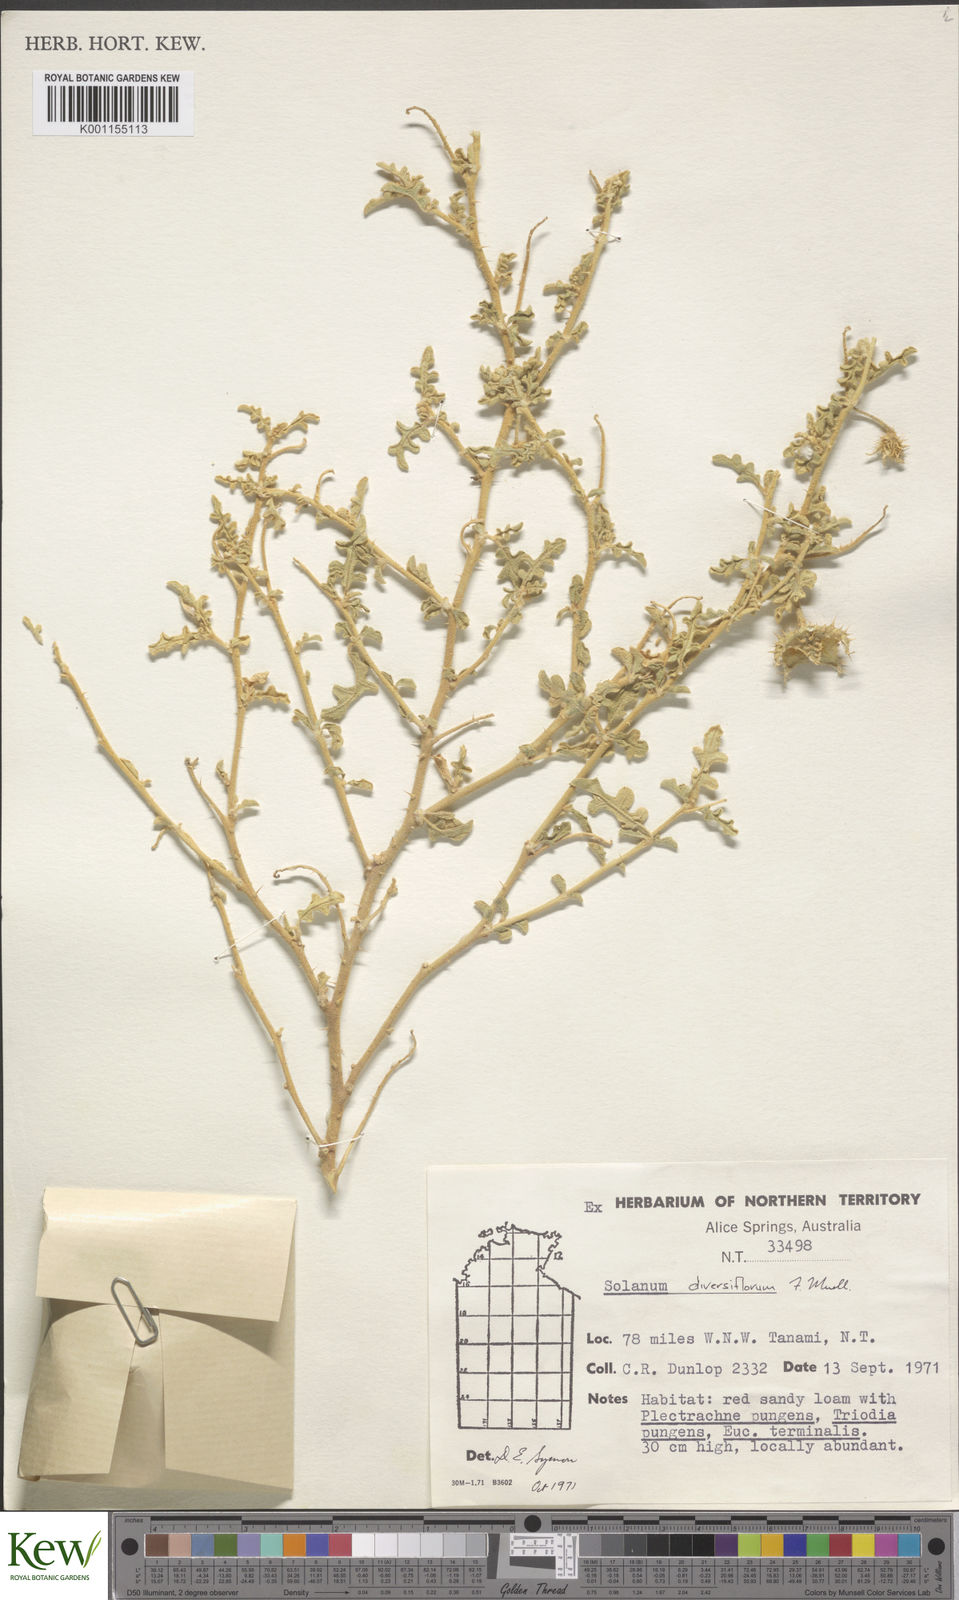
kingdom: Plantae
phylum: Tracheophyta
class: Magnoliopsida
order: Solanales
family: Solanaceae
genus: Solanum
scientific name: Solanum
